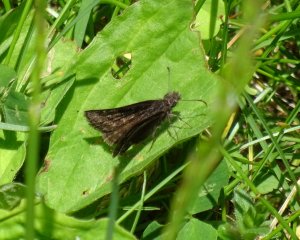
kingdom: Animalia
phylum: Arthropoda
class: Insecta
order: Lepidoptera
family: Hesperiidae
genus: Erynnis
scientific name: Erynnis icelus
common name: Dreamy Duskywing
